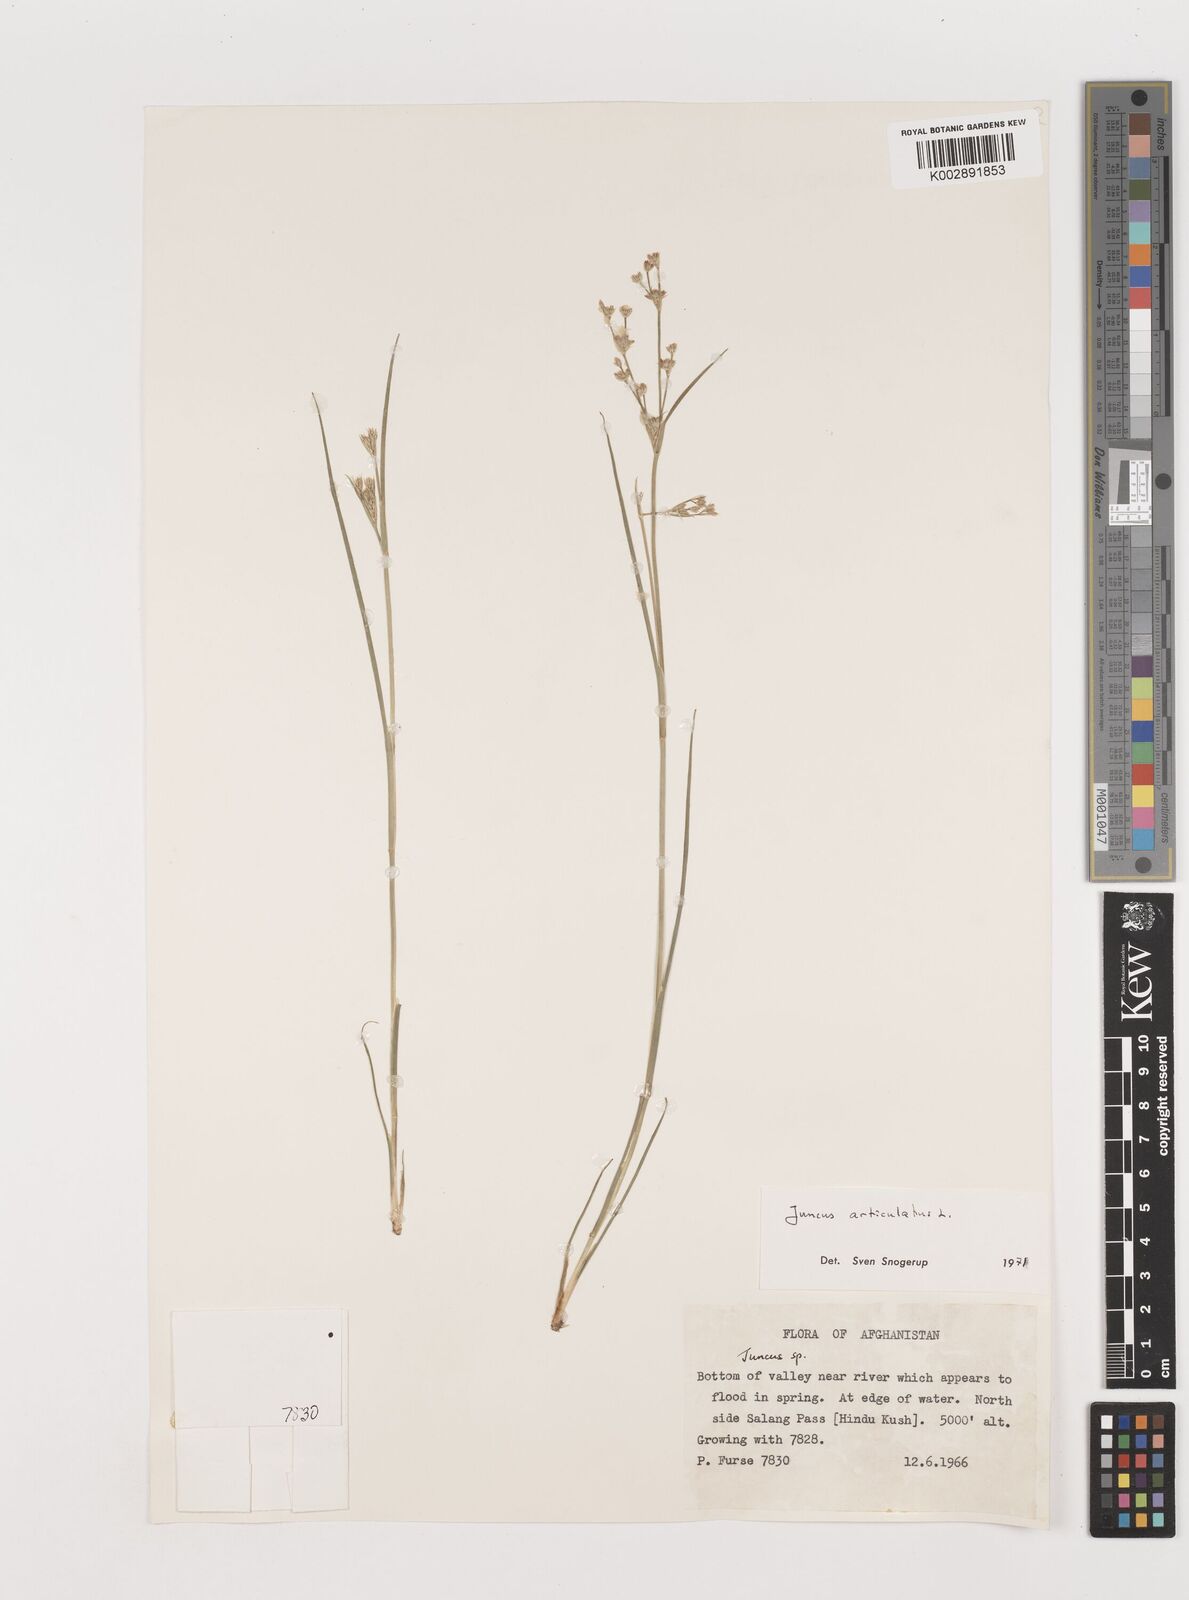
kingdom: Plantae
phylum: Tracheophyta
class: Liliopsida
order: Poales
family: Juncaceae
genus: Juncus
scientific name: Juncus articulatus
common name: Jointed rush
